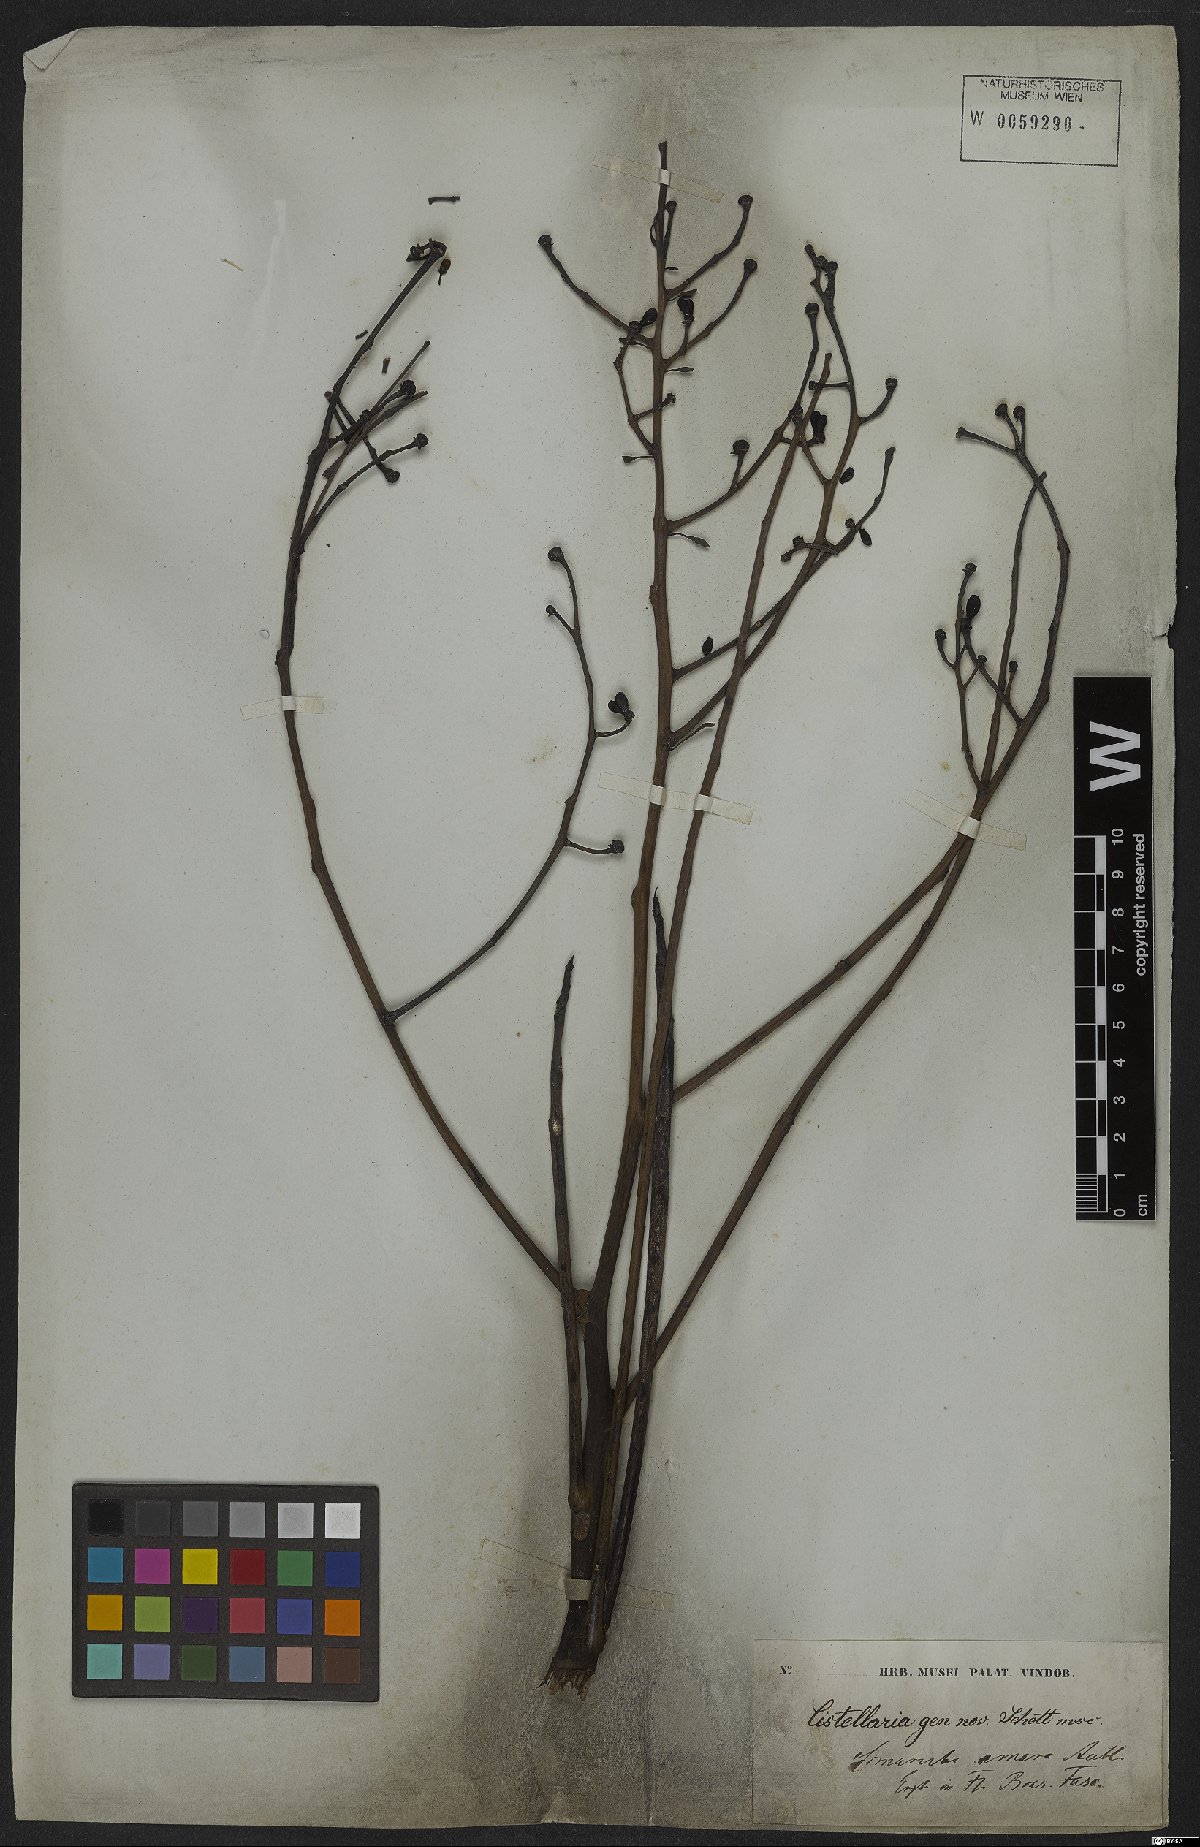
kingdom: Plantae
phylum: Tracheophyta
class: Magnoliopsida
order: Sapindales
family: Simaroubaceae
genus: Simarouba
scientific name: Simarouba amara
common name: Bitterwood
